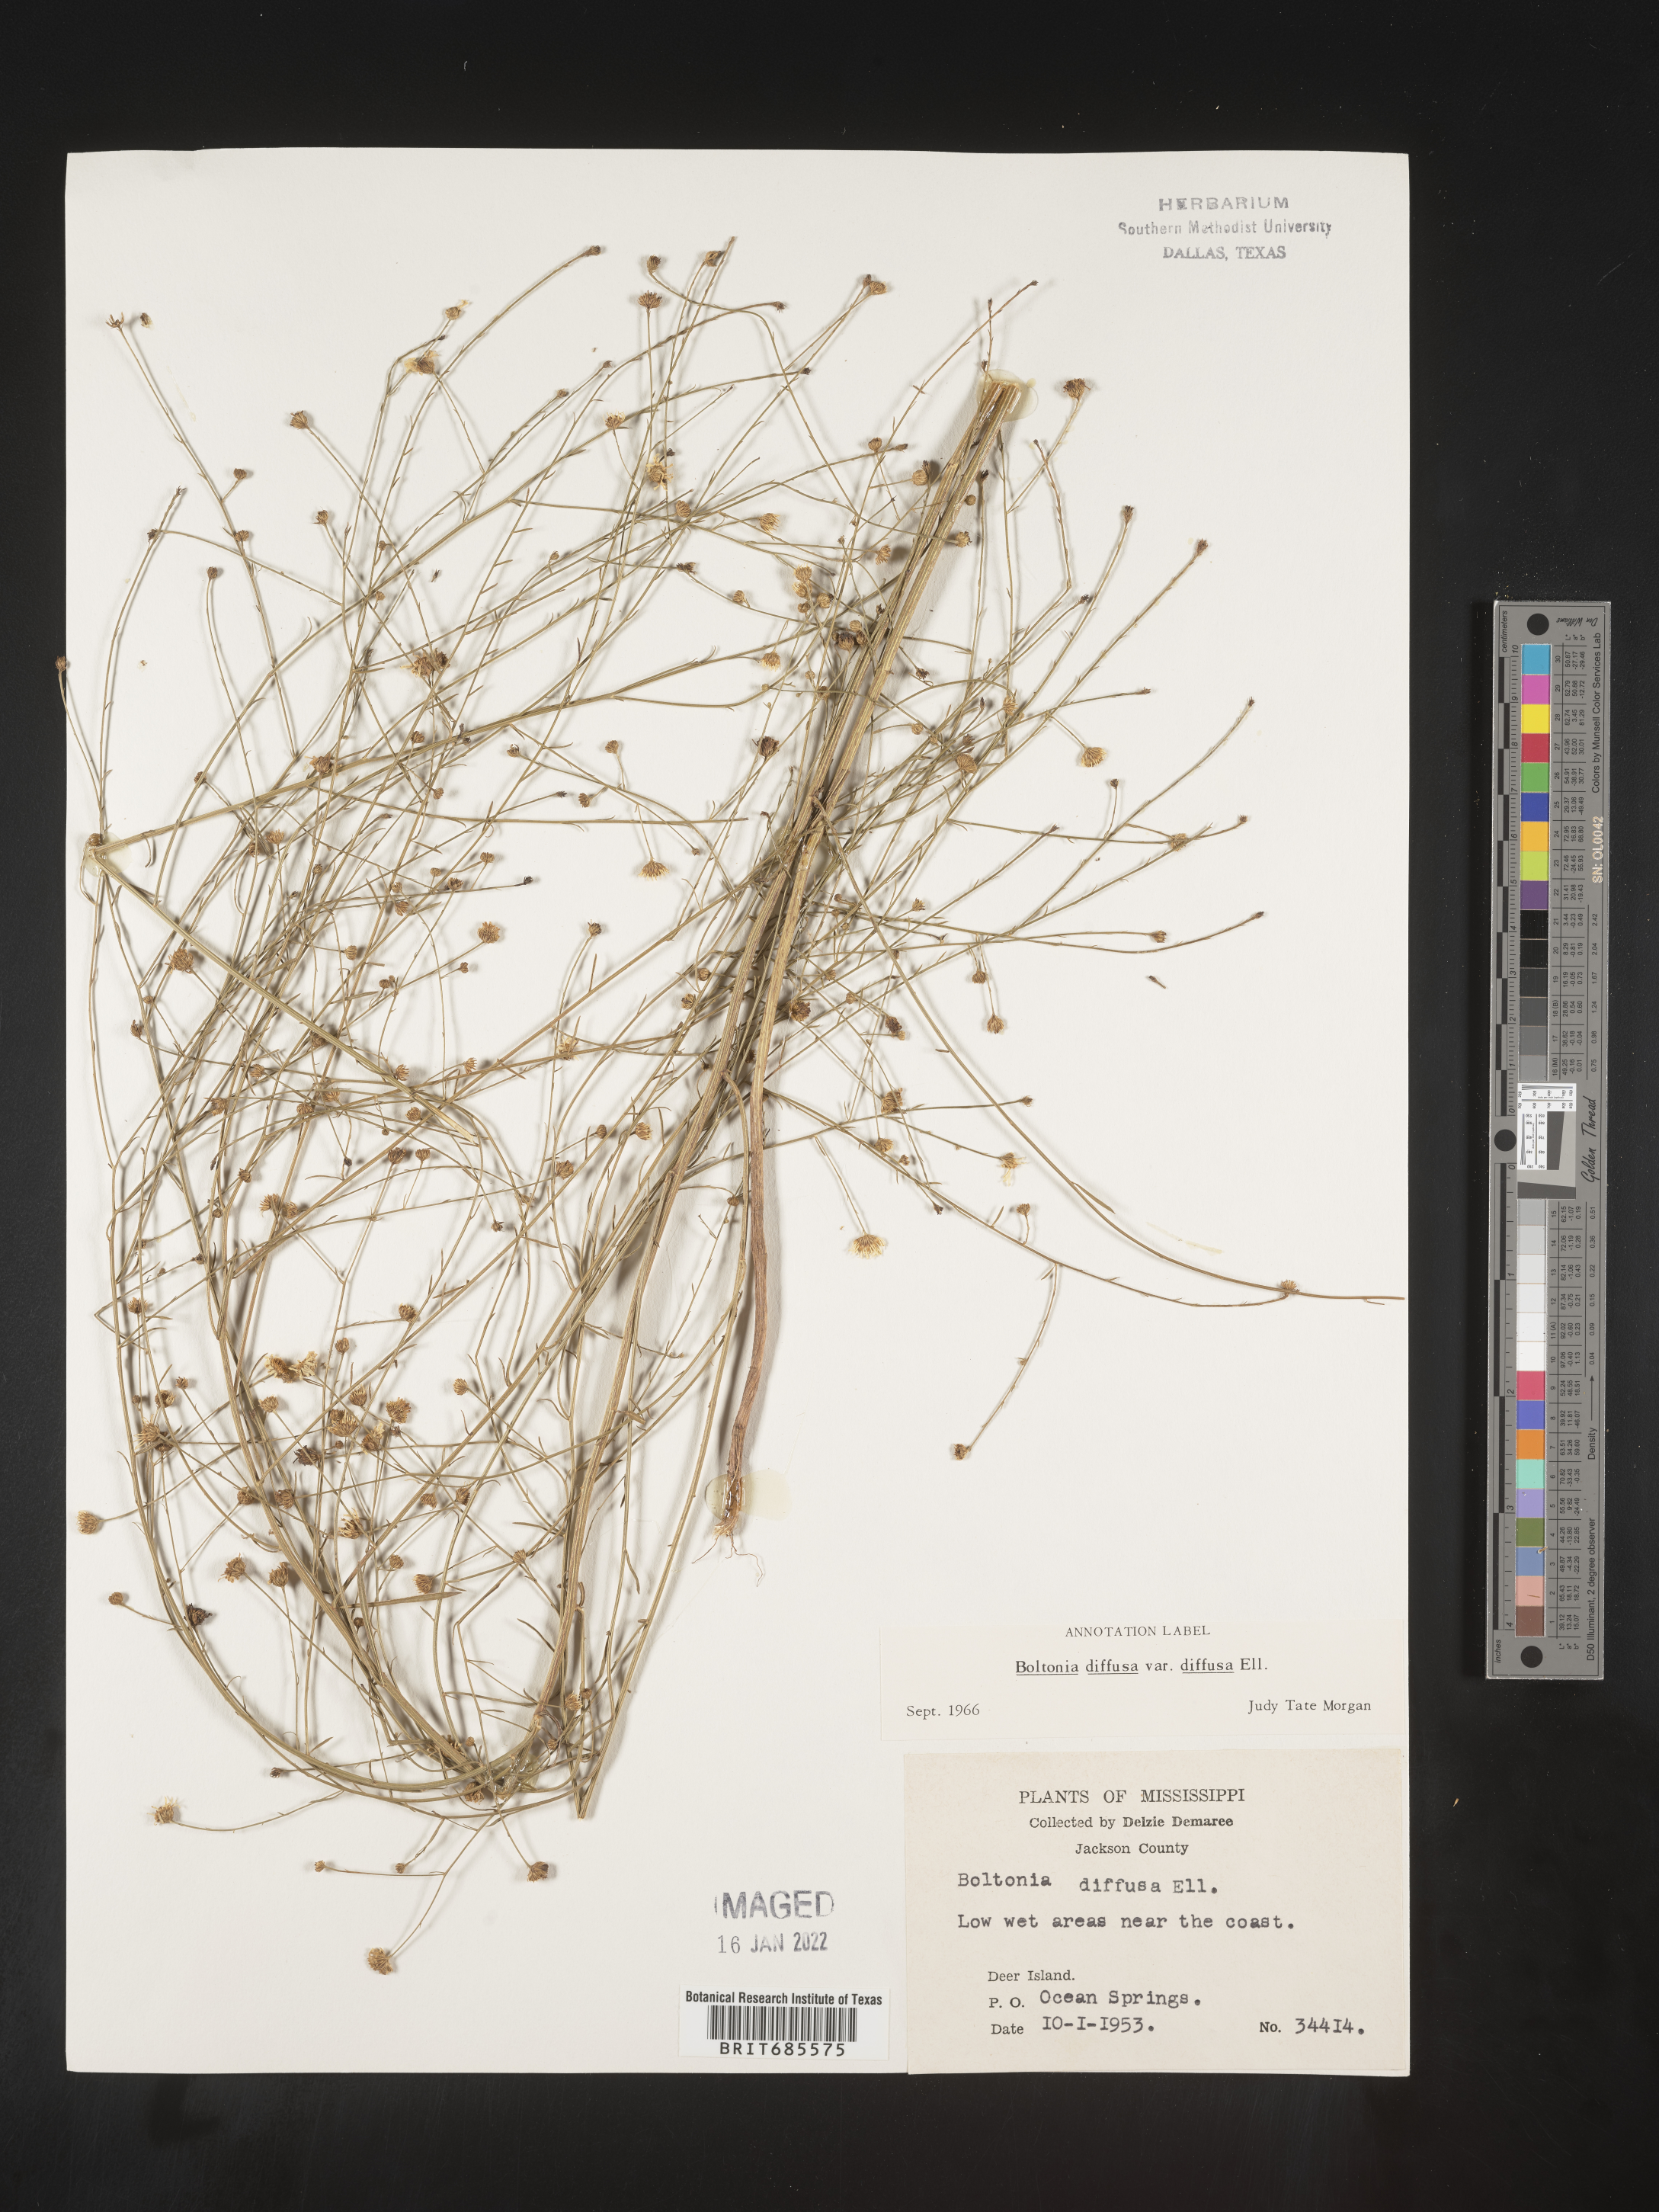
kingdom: Plantae
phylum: Tracheophyta
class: Magnoliopsida
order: Asterales
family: Asteraceae
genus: Boltonia
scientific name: Boltonia diffusa
